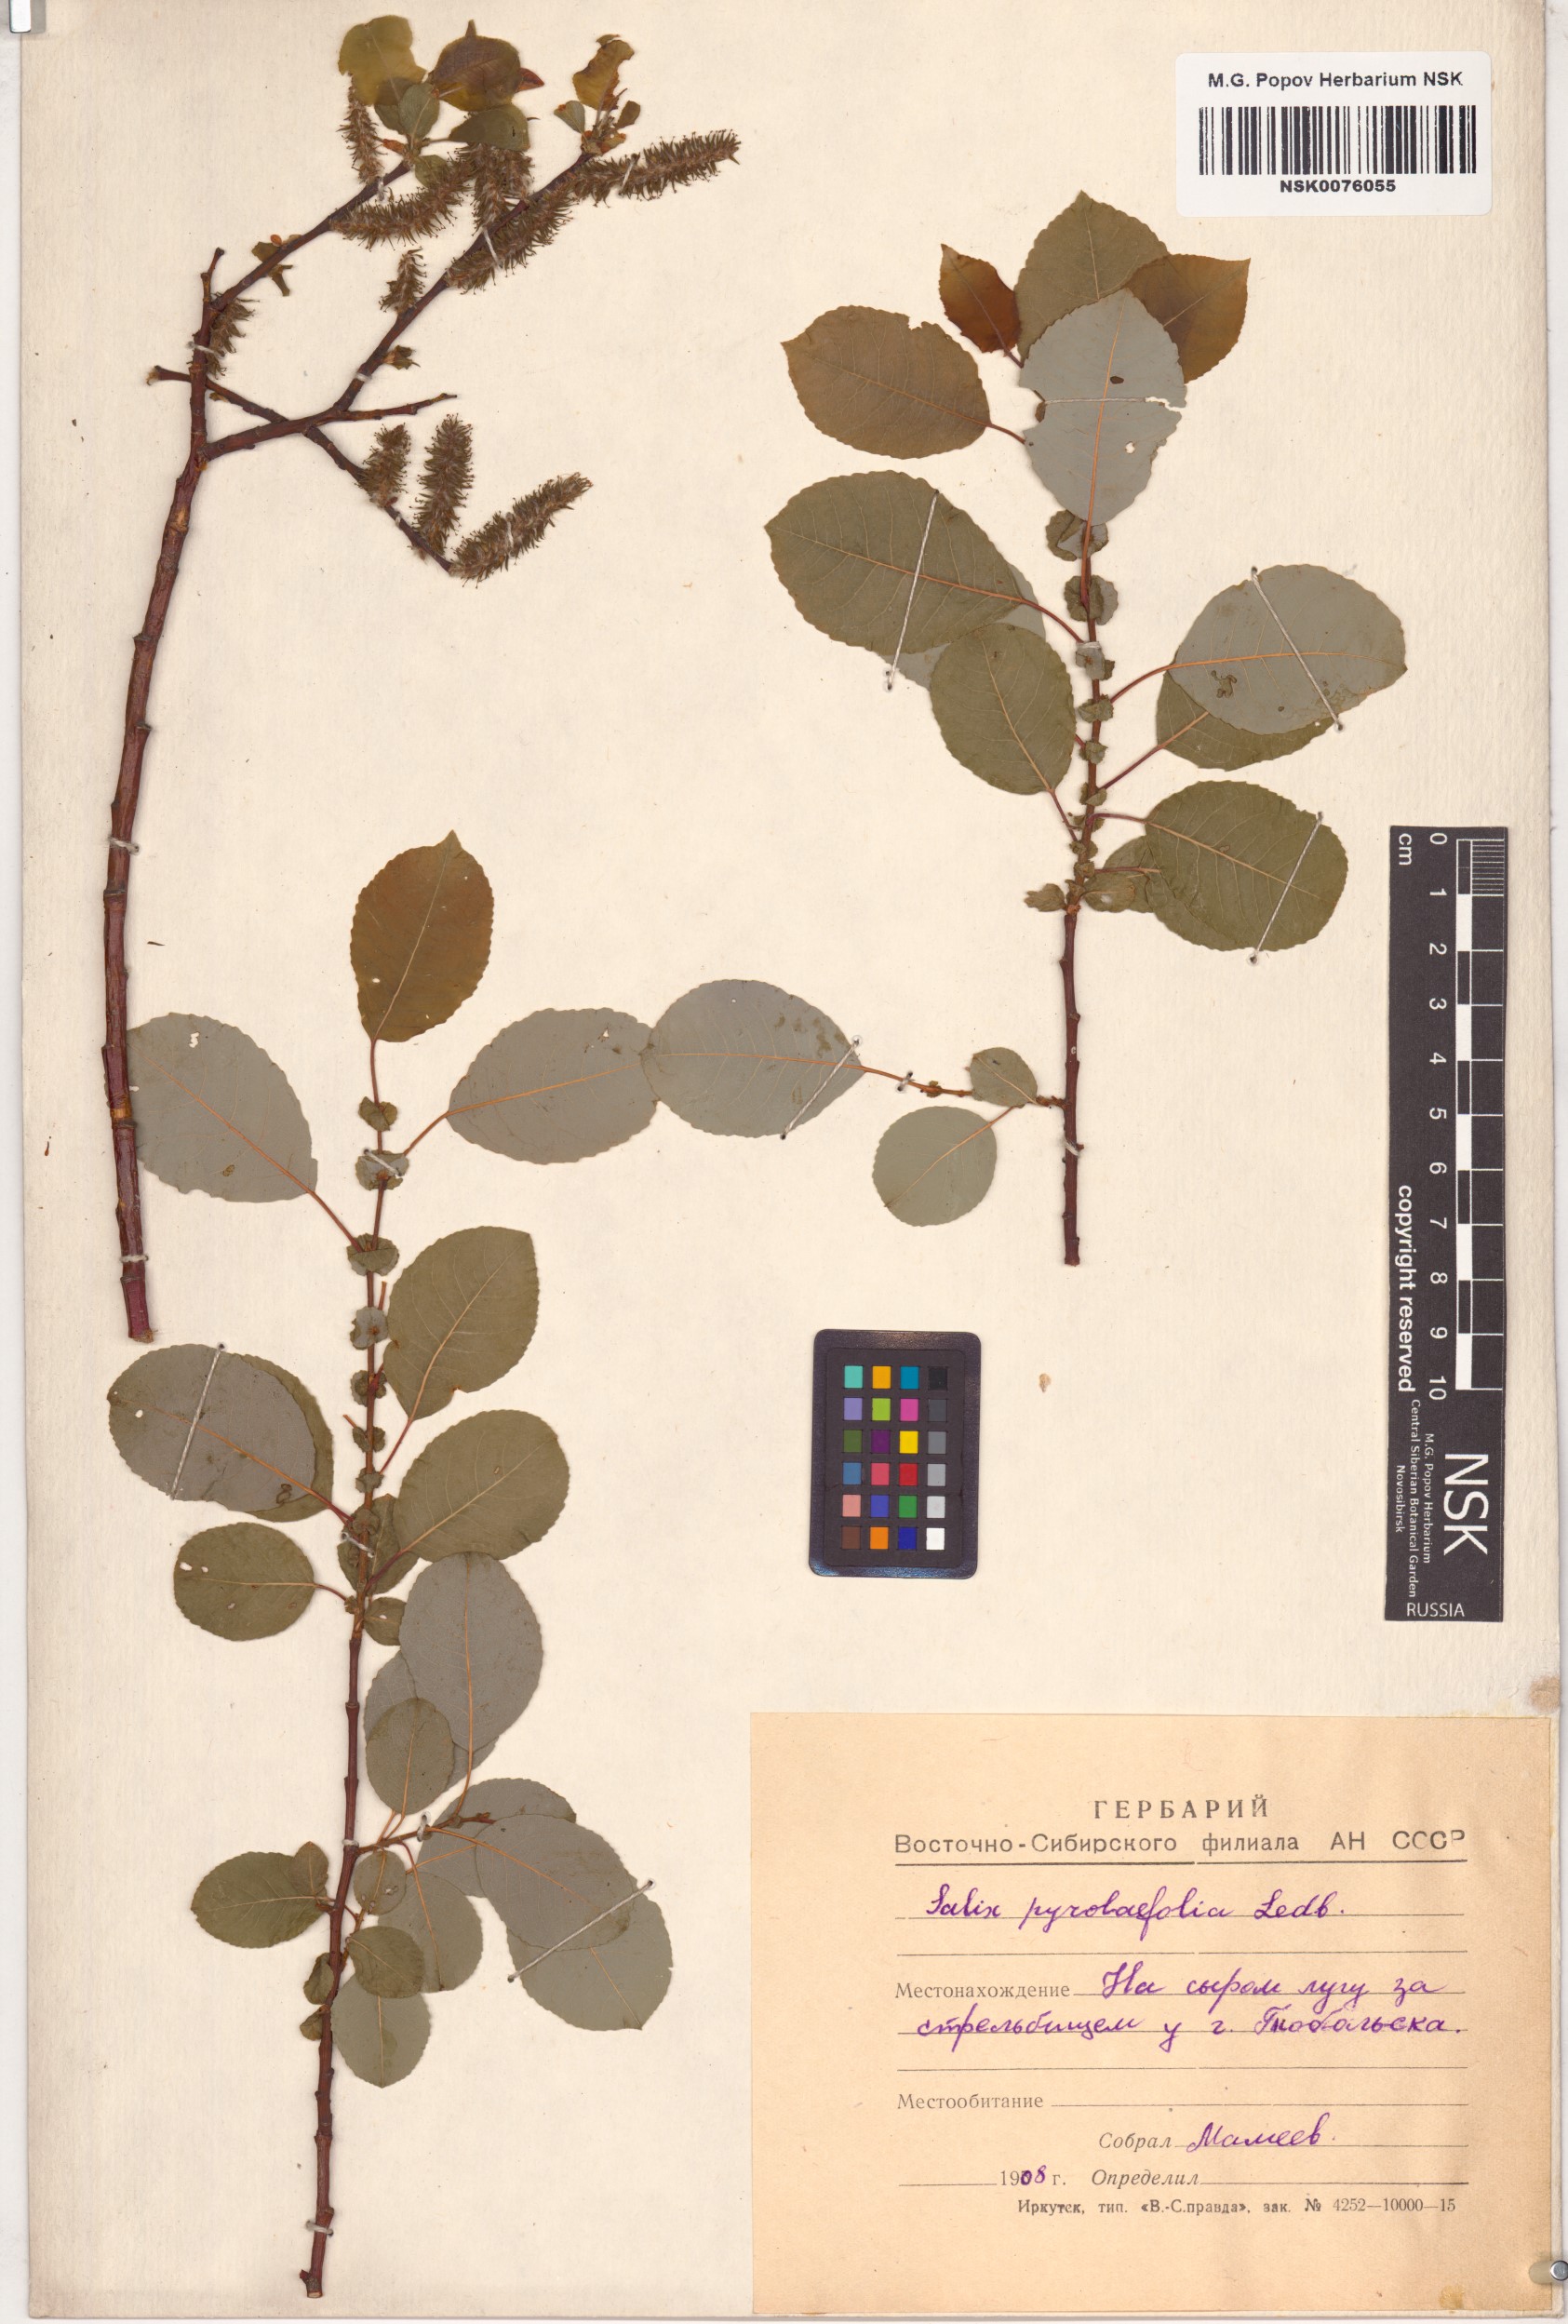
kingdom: Plantae
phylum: Tracheophyta
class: Magnoliopsida
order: Malpighiales
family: Salicaceae
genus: Salix
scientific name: Salix pyrolifolia
